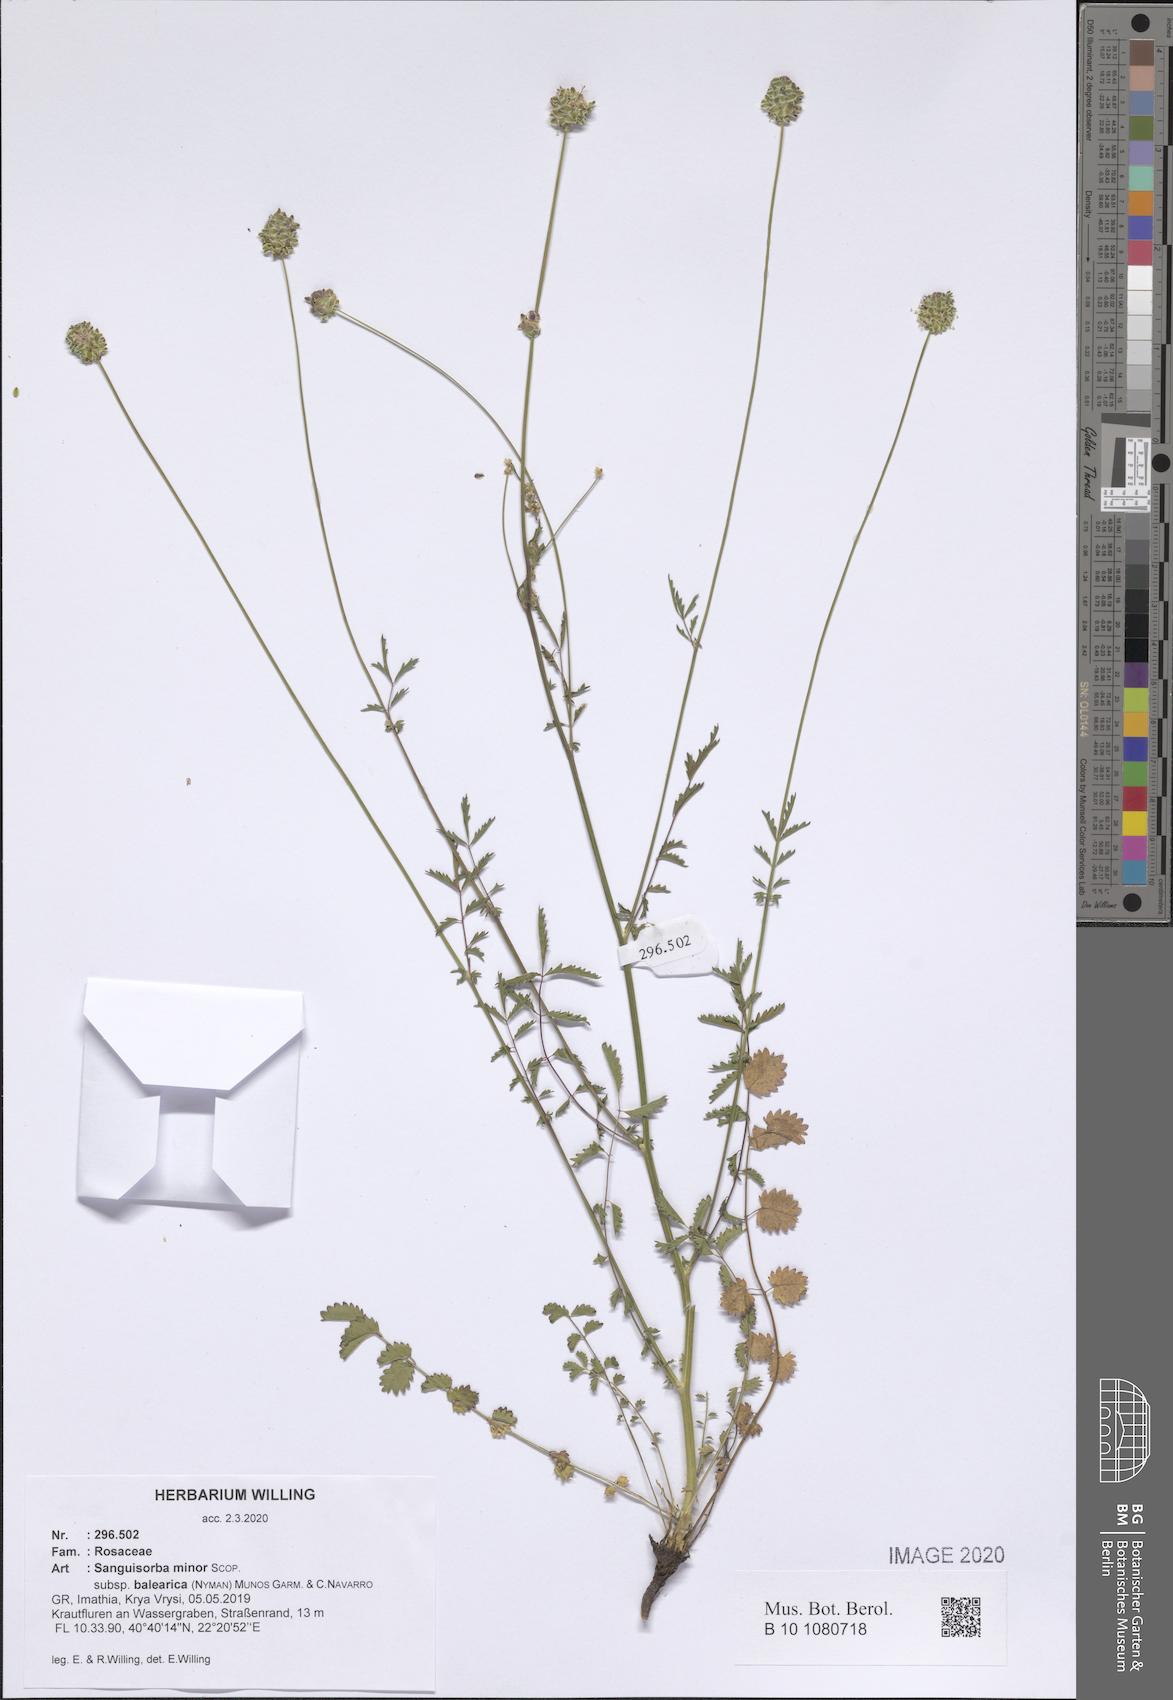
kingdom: Plantae
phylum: Tracheophyta
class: Magnoliopsida
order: Rosales
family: Rosaceae
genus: Poterium
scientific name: Poterium sanguisorba
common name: Salad burnet
